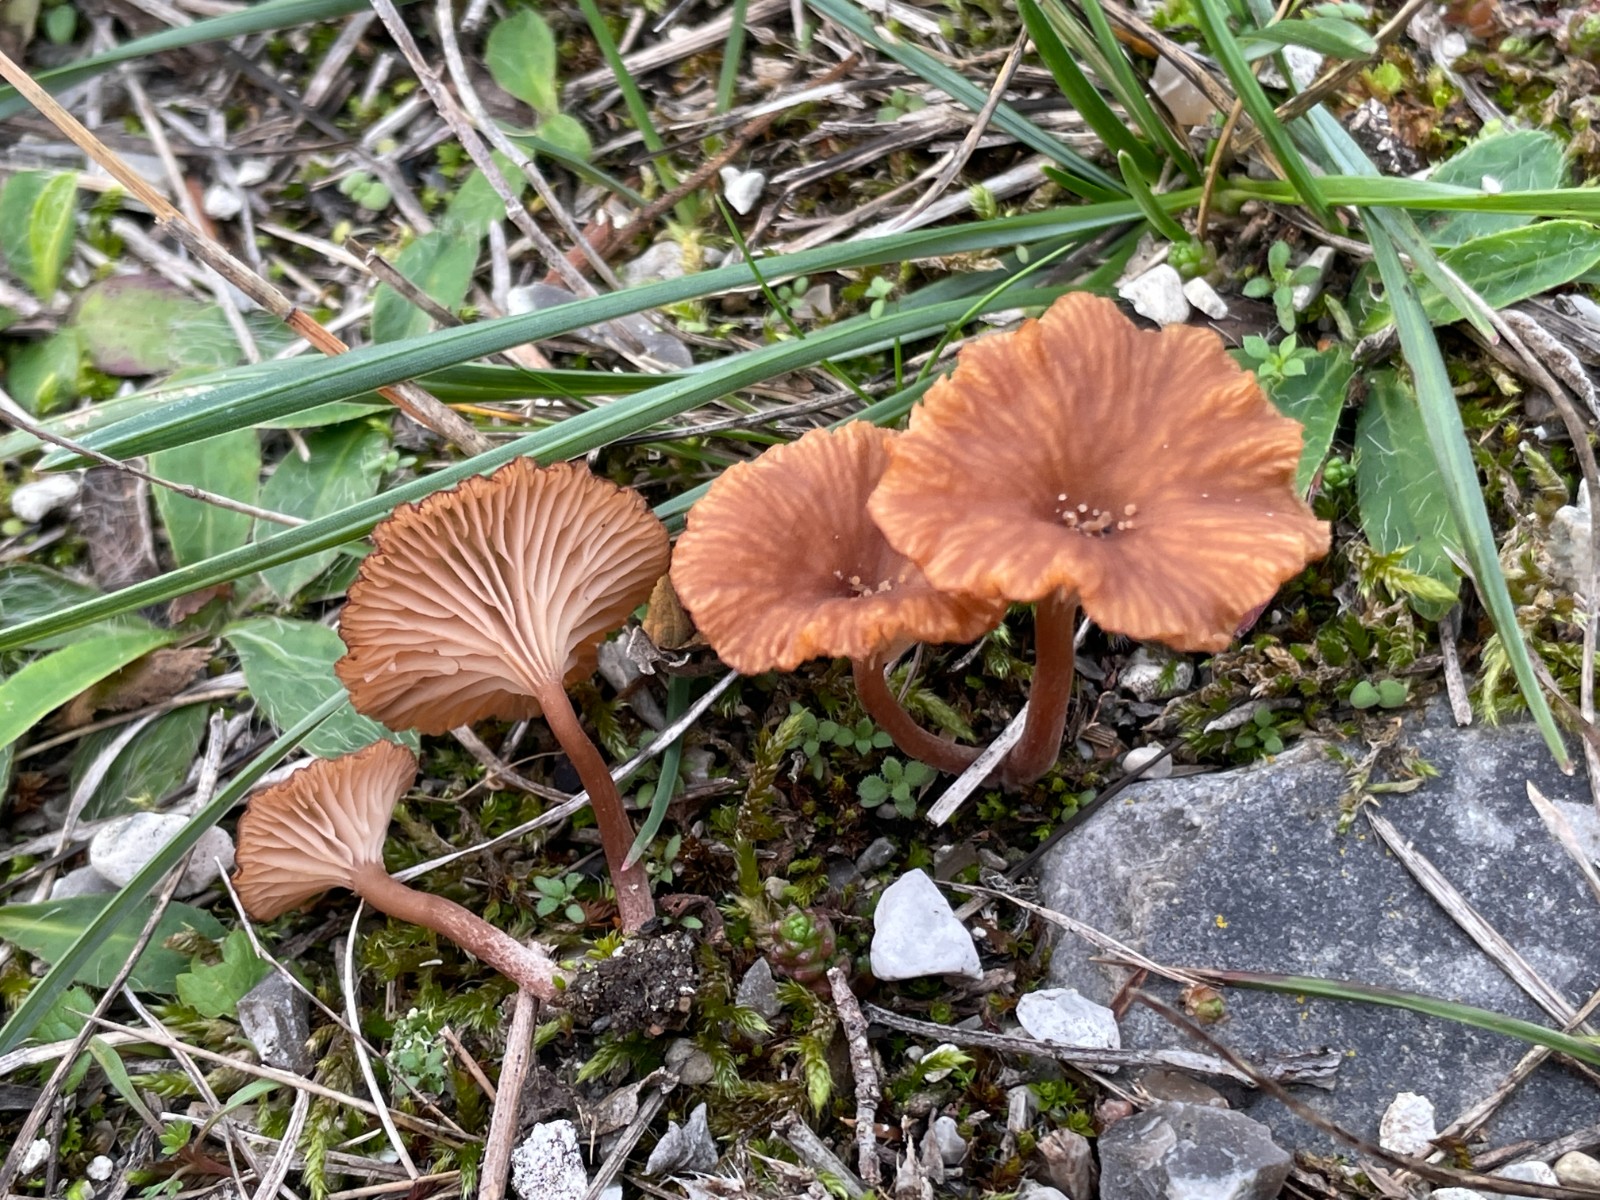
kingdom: Fungi
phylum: Basidiomycota
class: Agaricomycetes
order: Agaricales
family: Tricholomataceae
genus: Omphalina
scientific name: Omphalina pyxidata
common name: rødbrun navlehat
